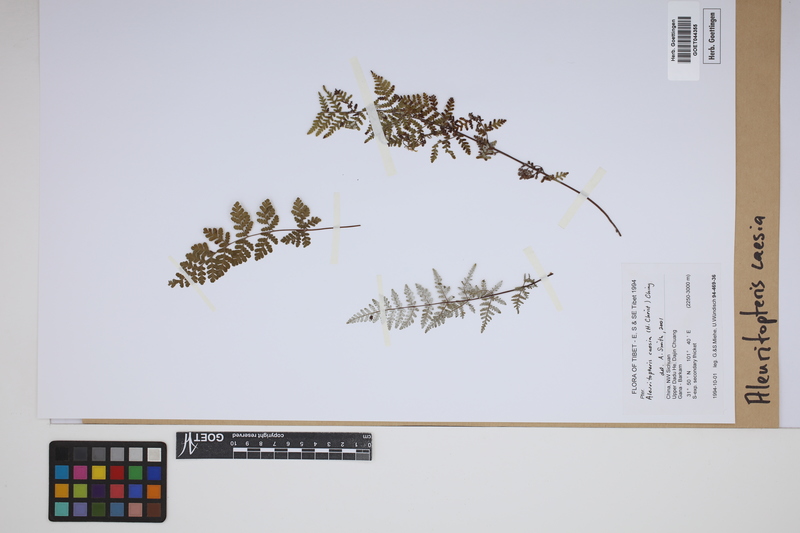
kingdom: Plantae
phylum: Tracheophyta
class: Polypodiopsida
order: Polypodiales
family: Pteridaceae
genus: Oeosporangium
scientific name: Oeosporangium kuhnii
